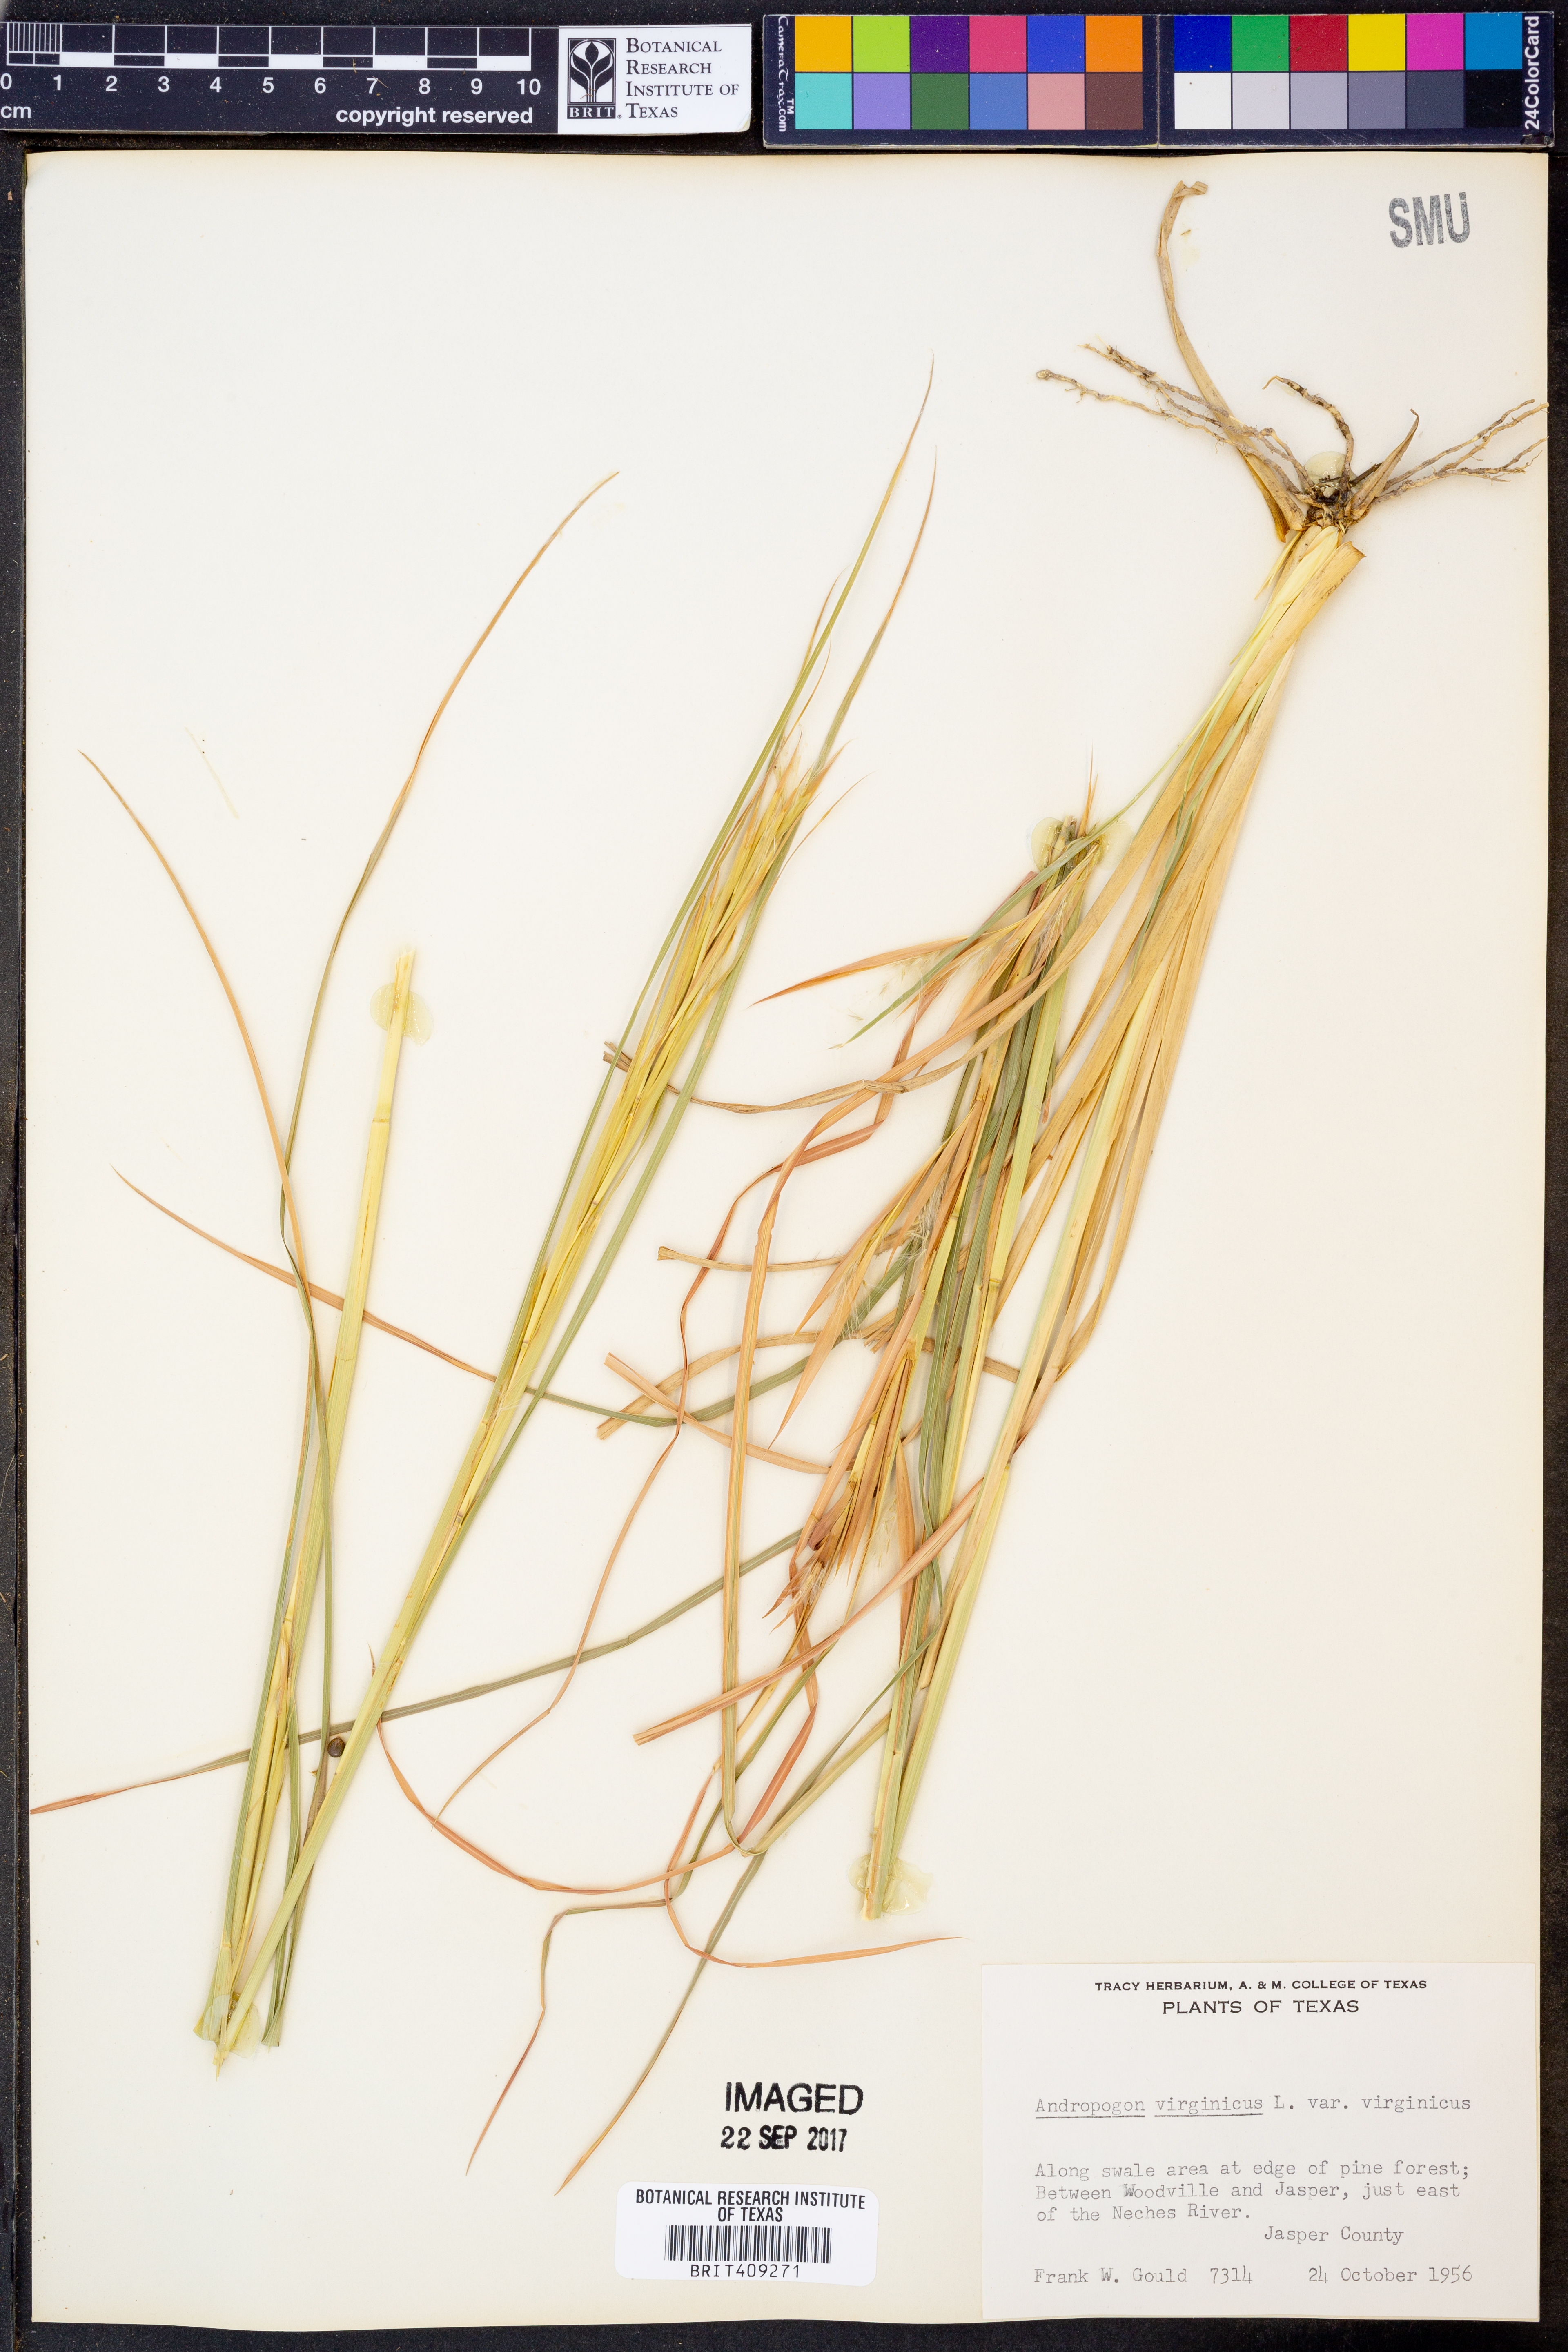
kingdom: Plantae
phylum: Tracheophyta
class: Liliopsida
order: Poales
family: Poaceae
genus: Andropogon
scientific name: Andropogon virginicus
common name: Broomsedge bluestem
